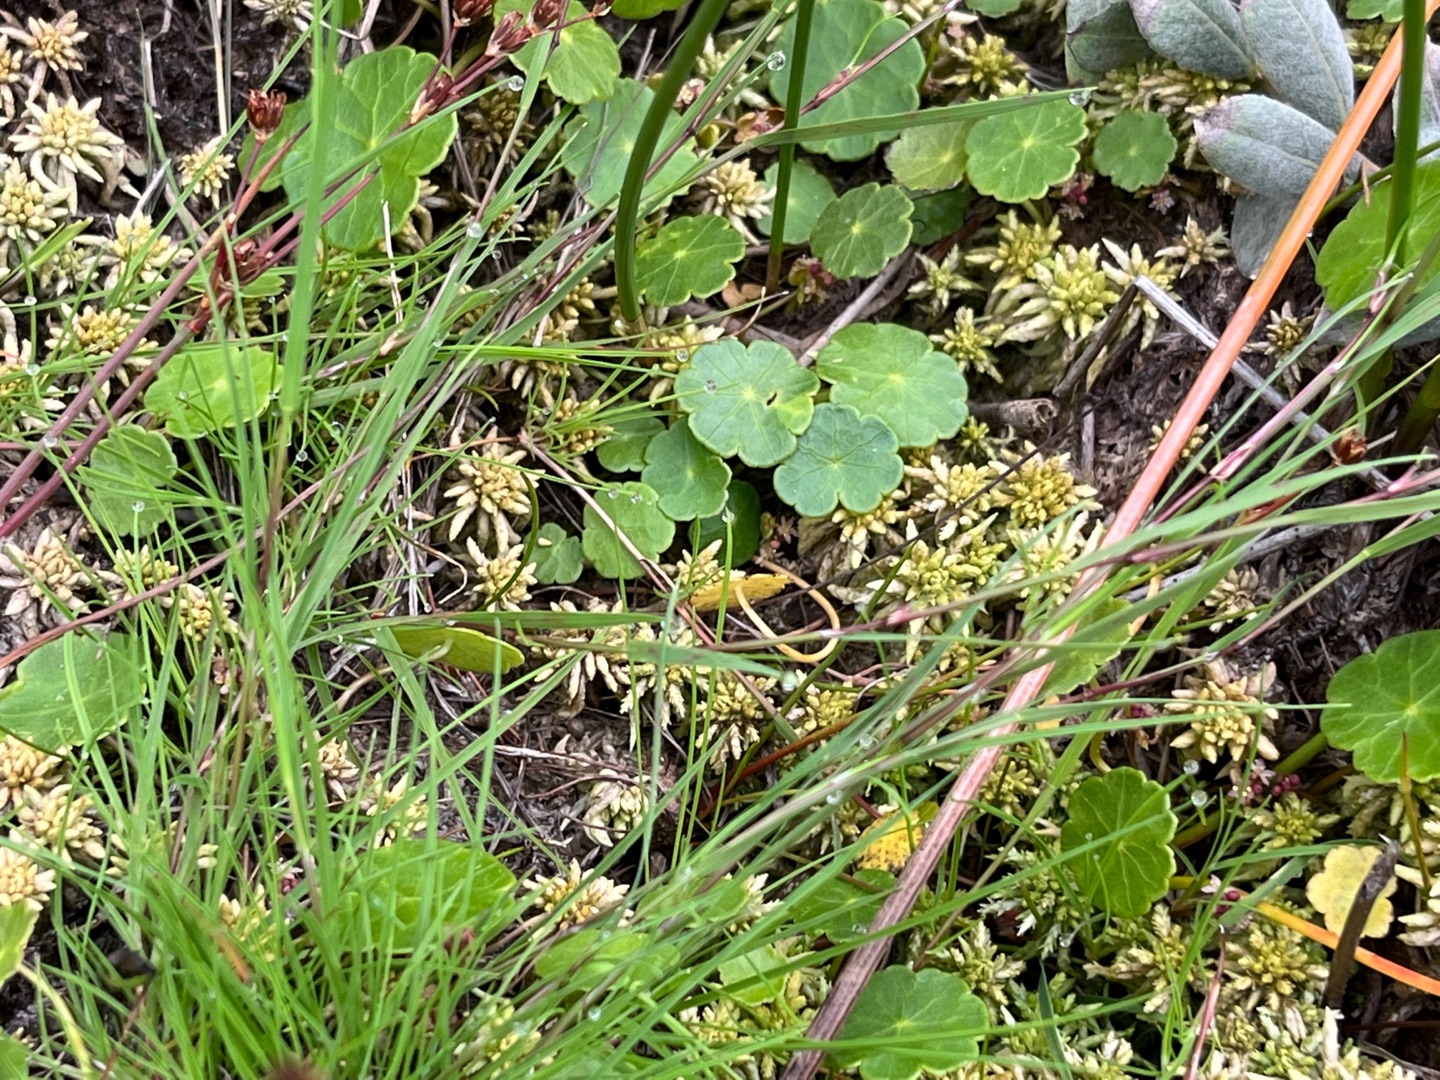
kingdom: Plantae
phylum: Tracheophyta
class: Liliopsida
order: Poales
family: Poaceae
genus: Agrostis
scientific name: Agrostis canina
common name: Hunde-hvene
